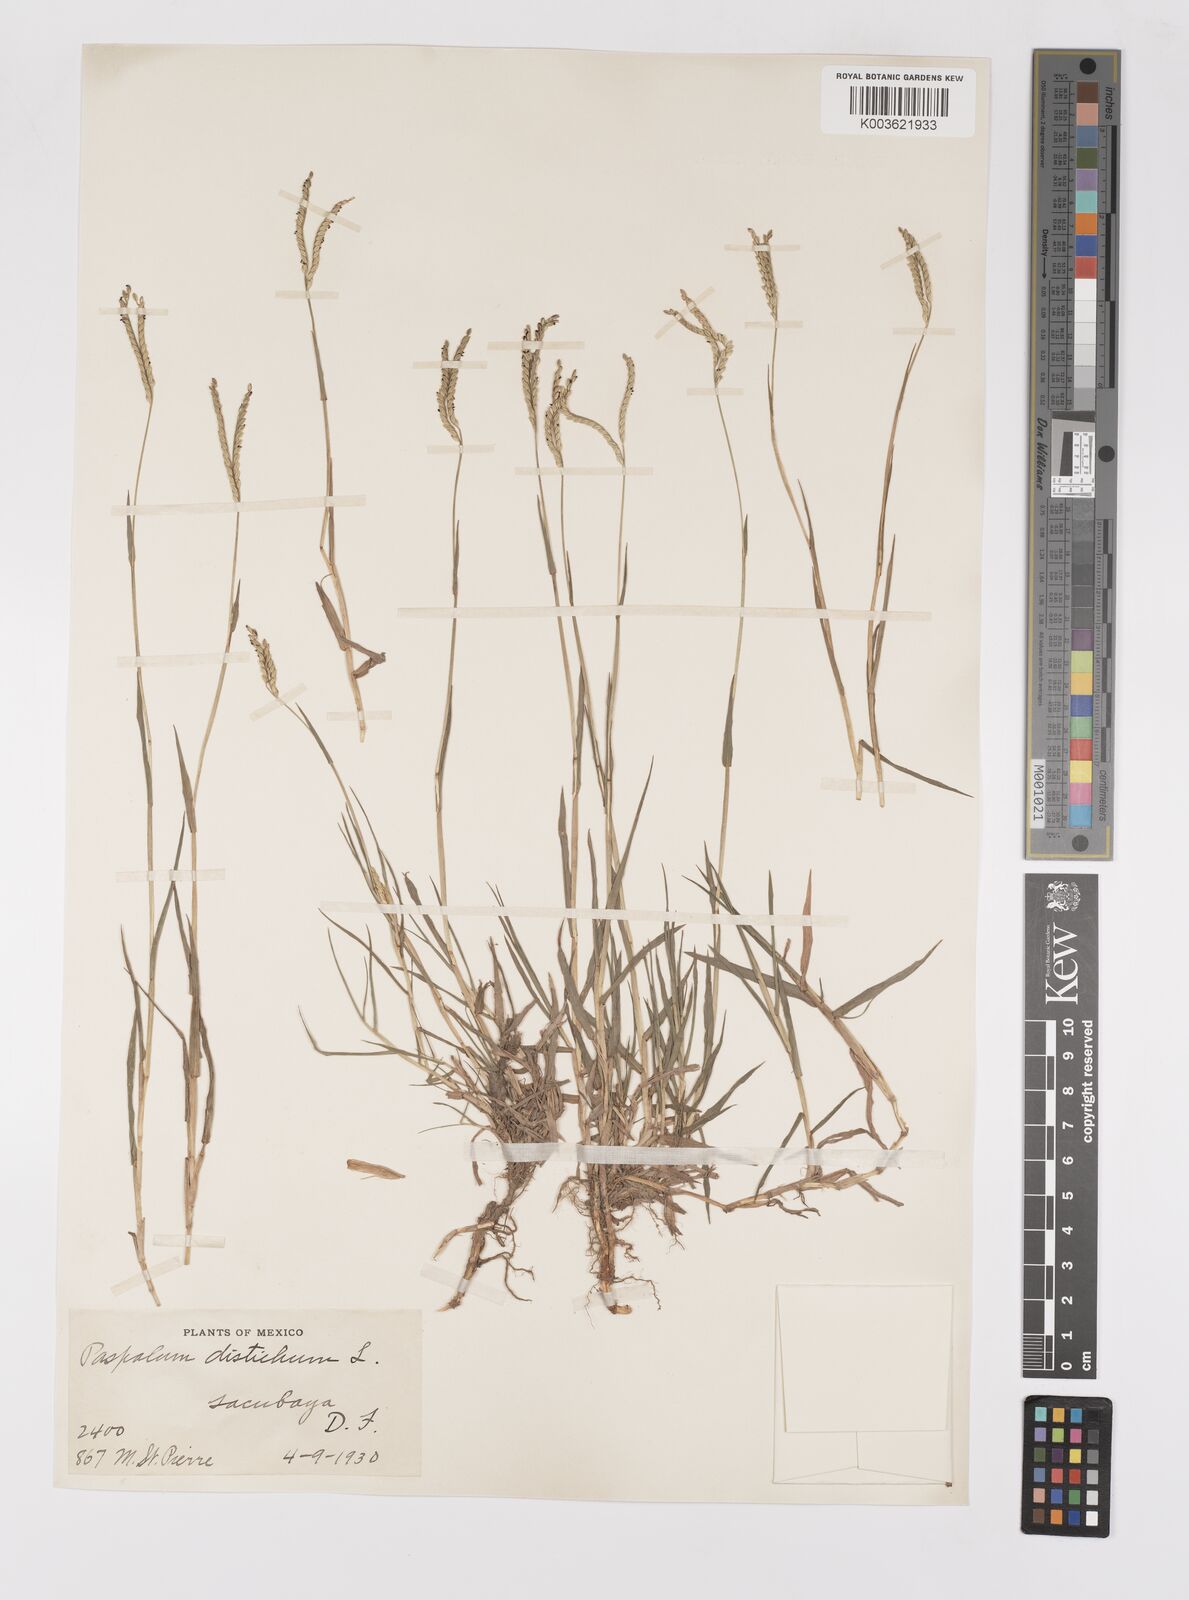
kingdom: Plantae
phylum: Tracheophyta
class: Liliopsida
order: Poales
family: Poaceae
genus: Paspalum
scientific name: Paspalum distichum
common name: Knotgrass
